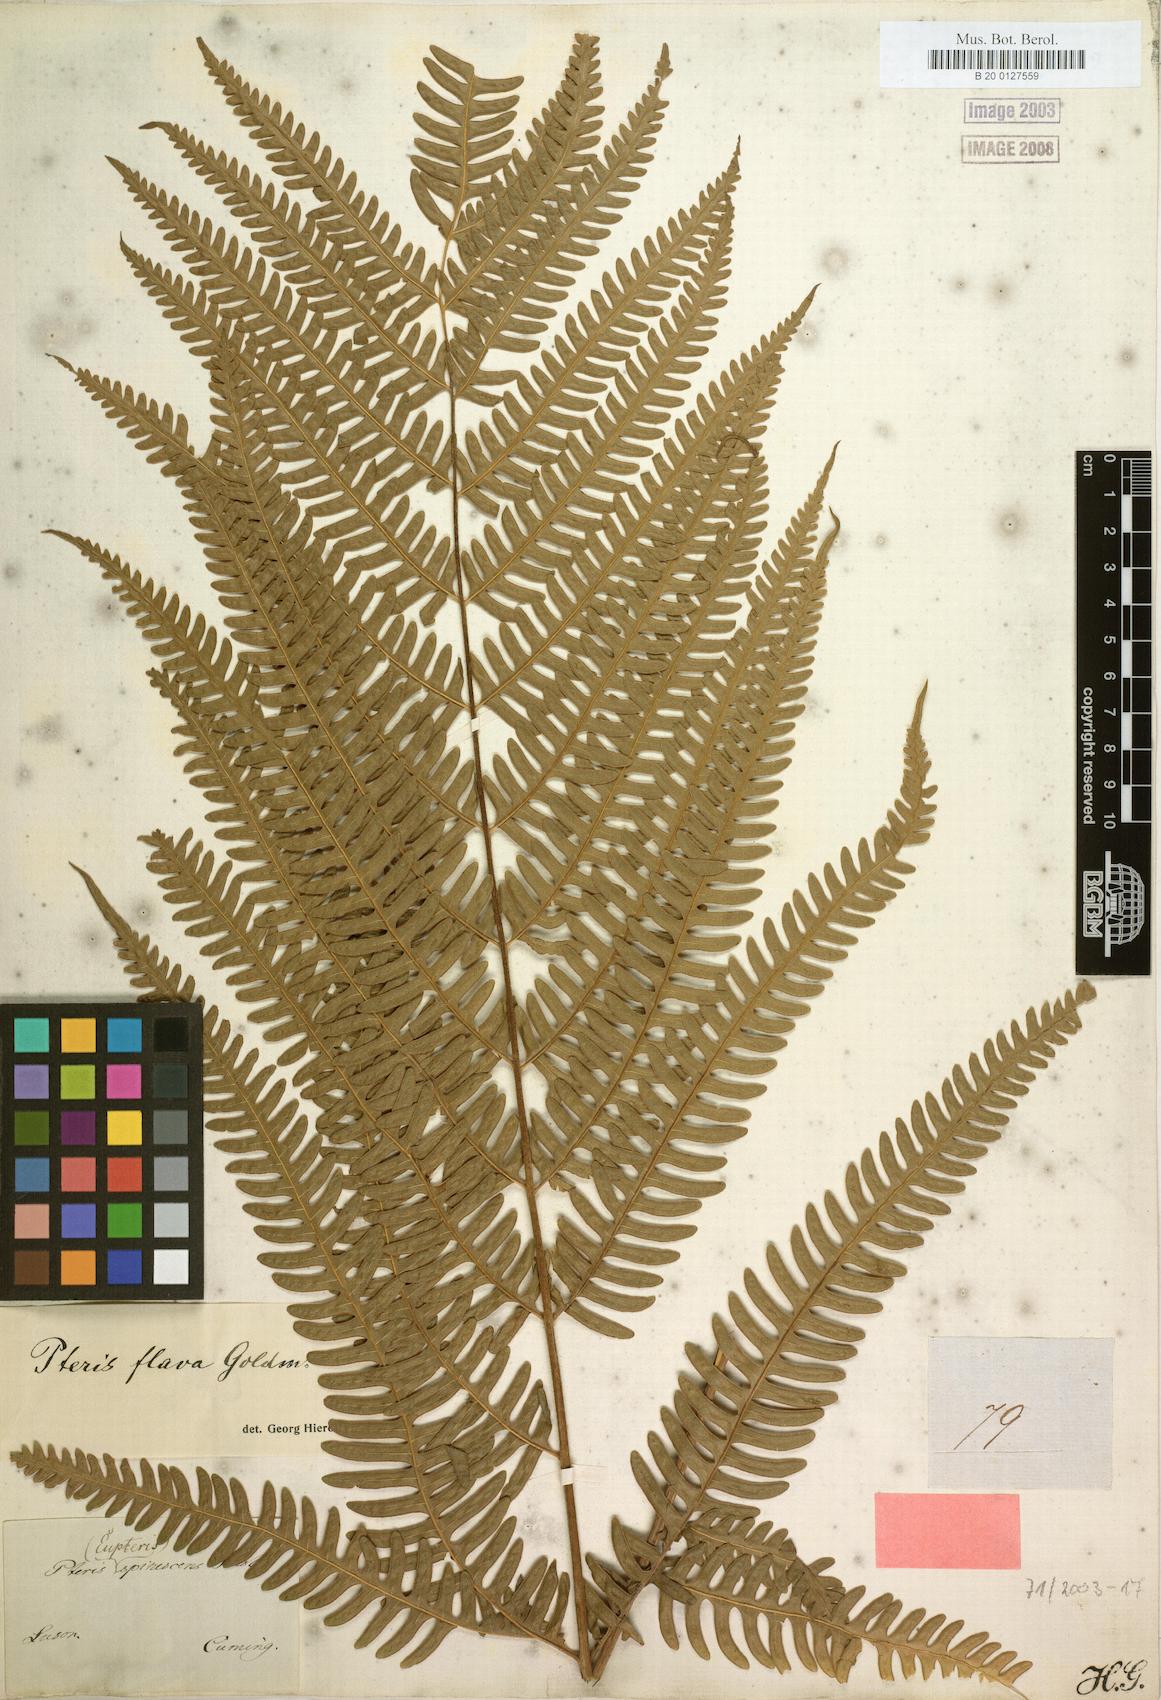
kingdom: Plantae
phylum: Tracheophyta
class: Polypodiopsida
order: Polypodiales
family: Pteridaceae
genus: Pteris
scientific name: Pteris glaucovirens
